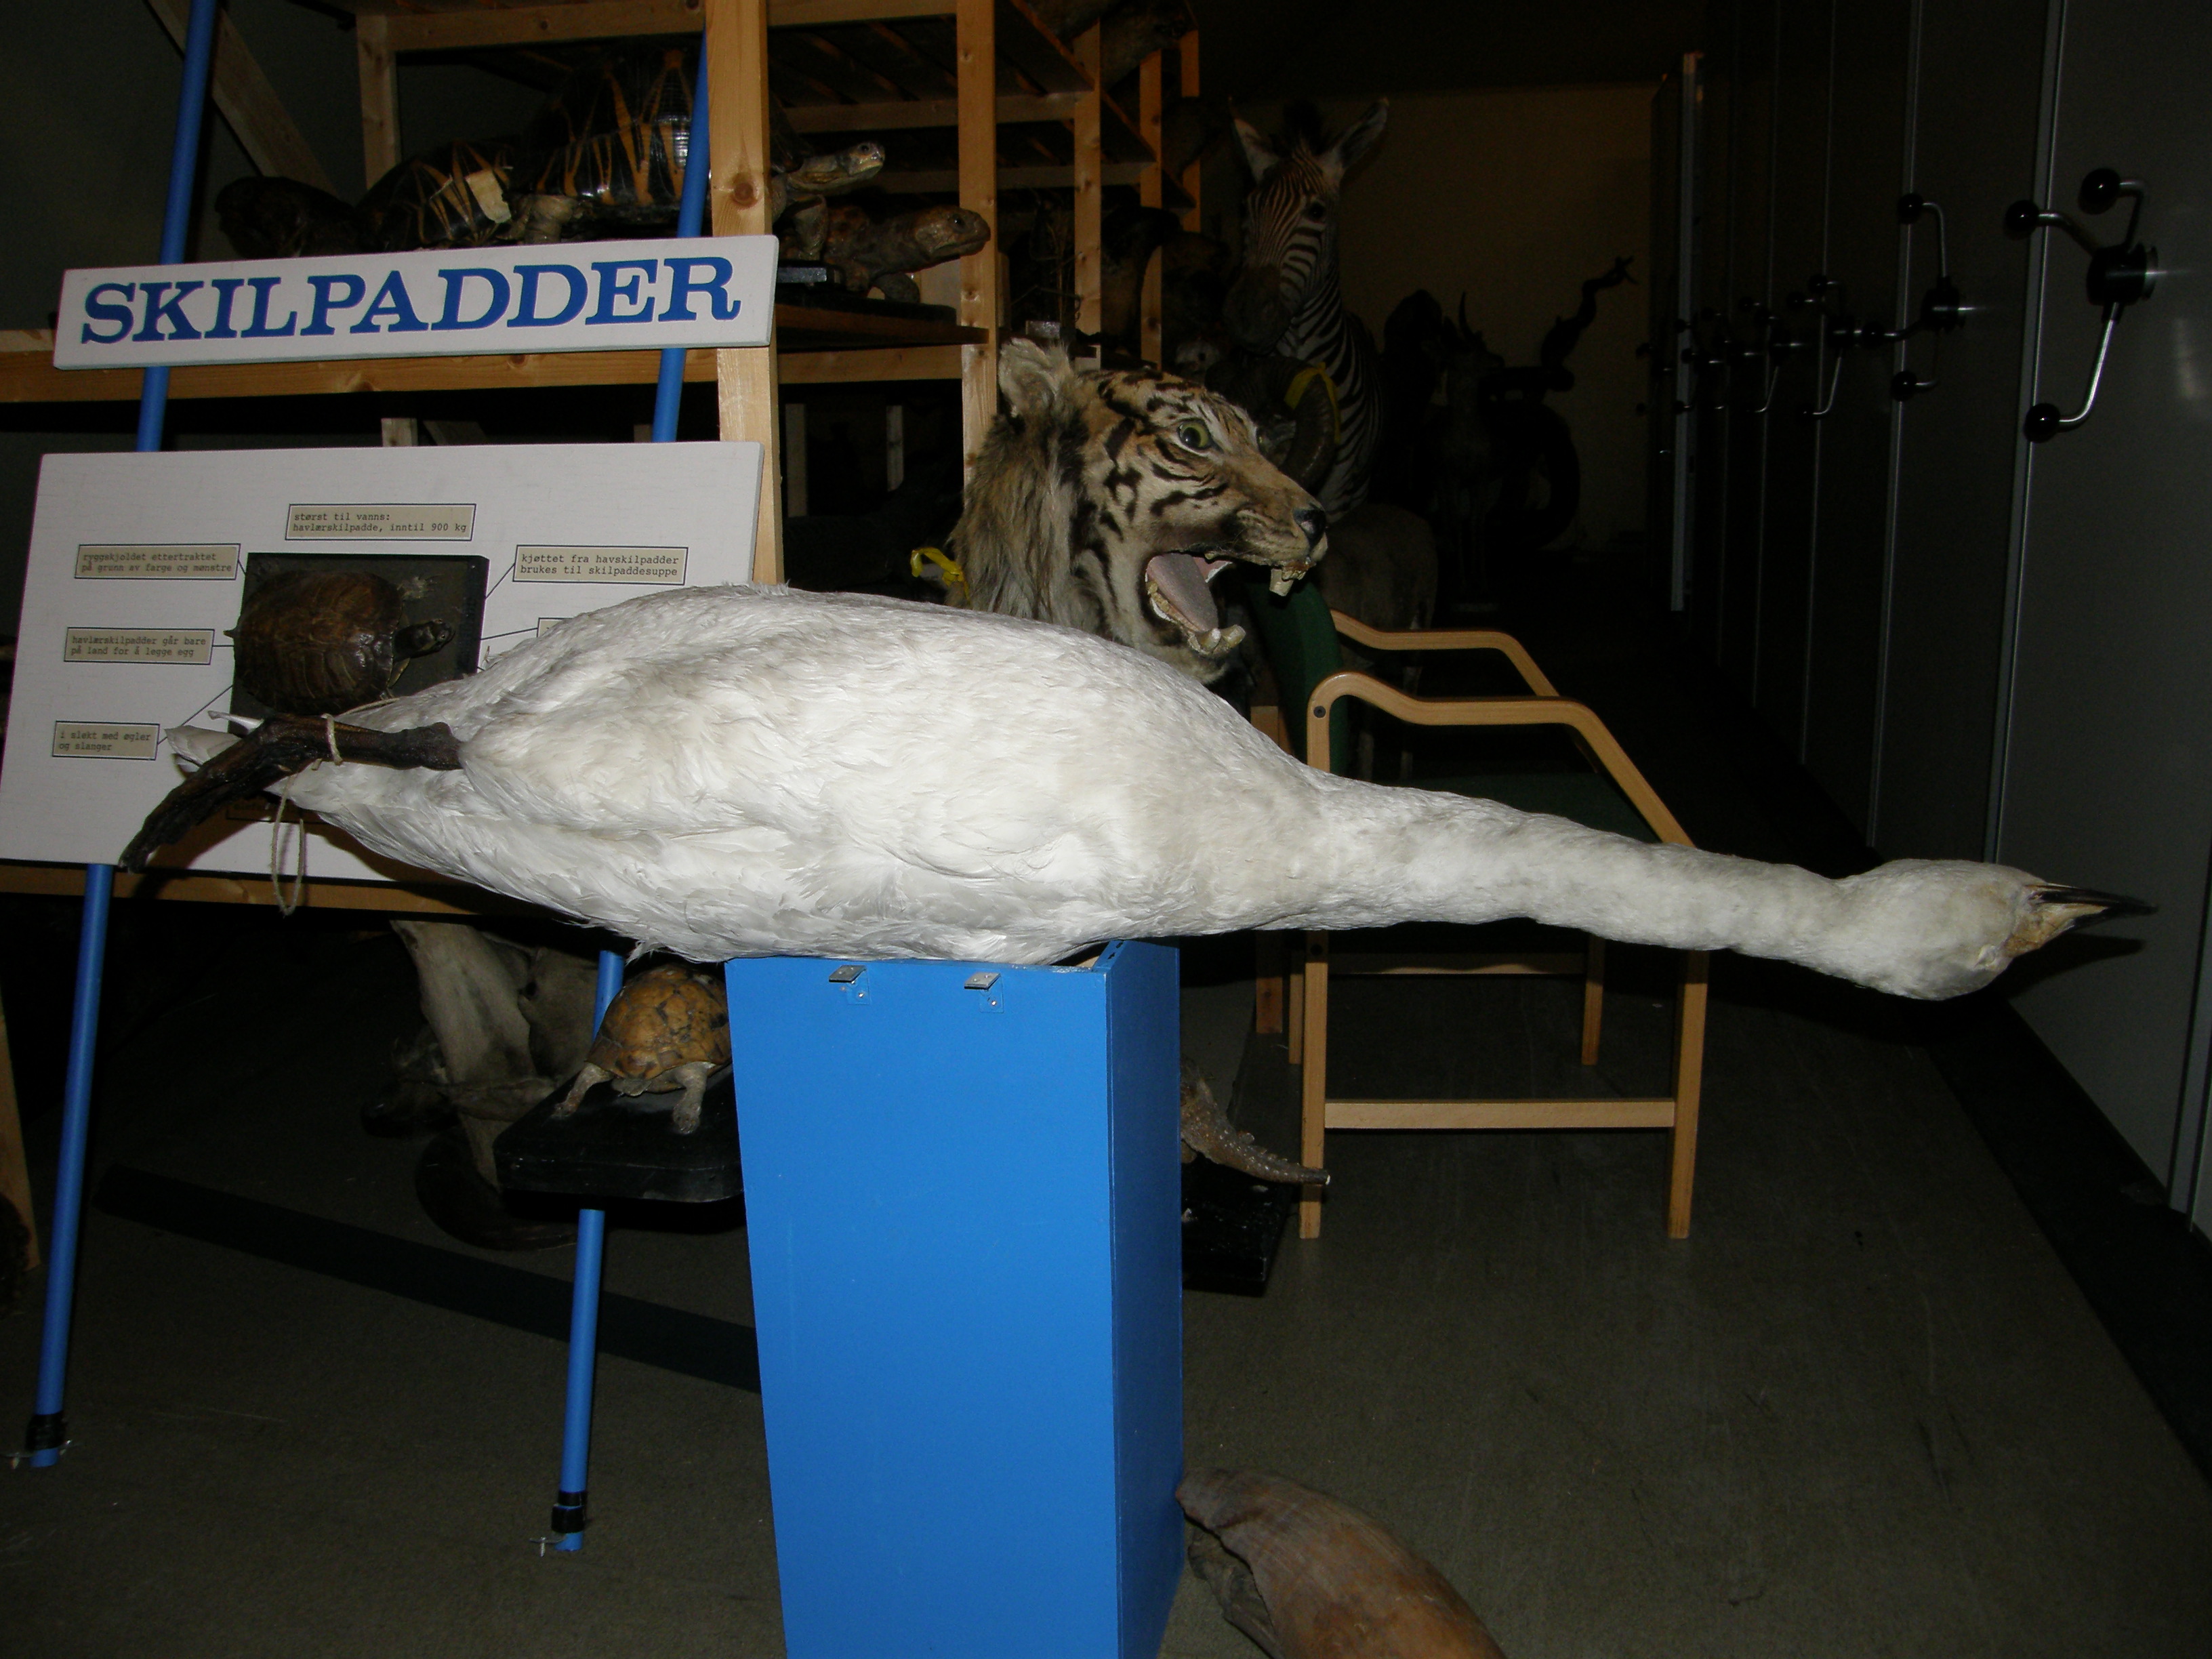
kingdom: Animalia
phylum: Chordata
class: Aves
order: Anseriformes
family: Anatidae
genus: Cygnus
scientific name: Cygnus cygnus
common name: Whooper swan
